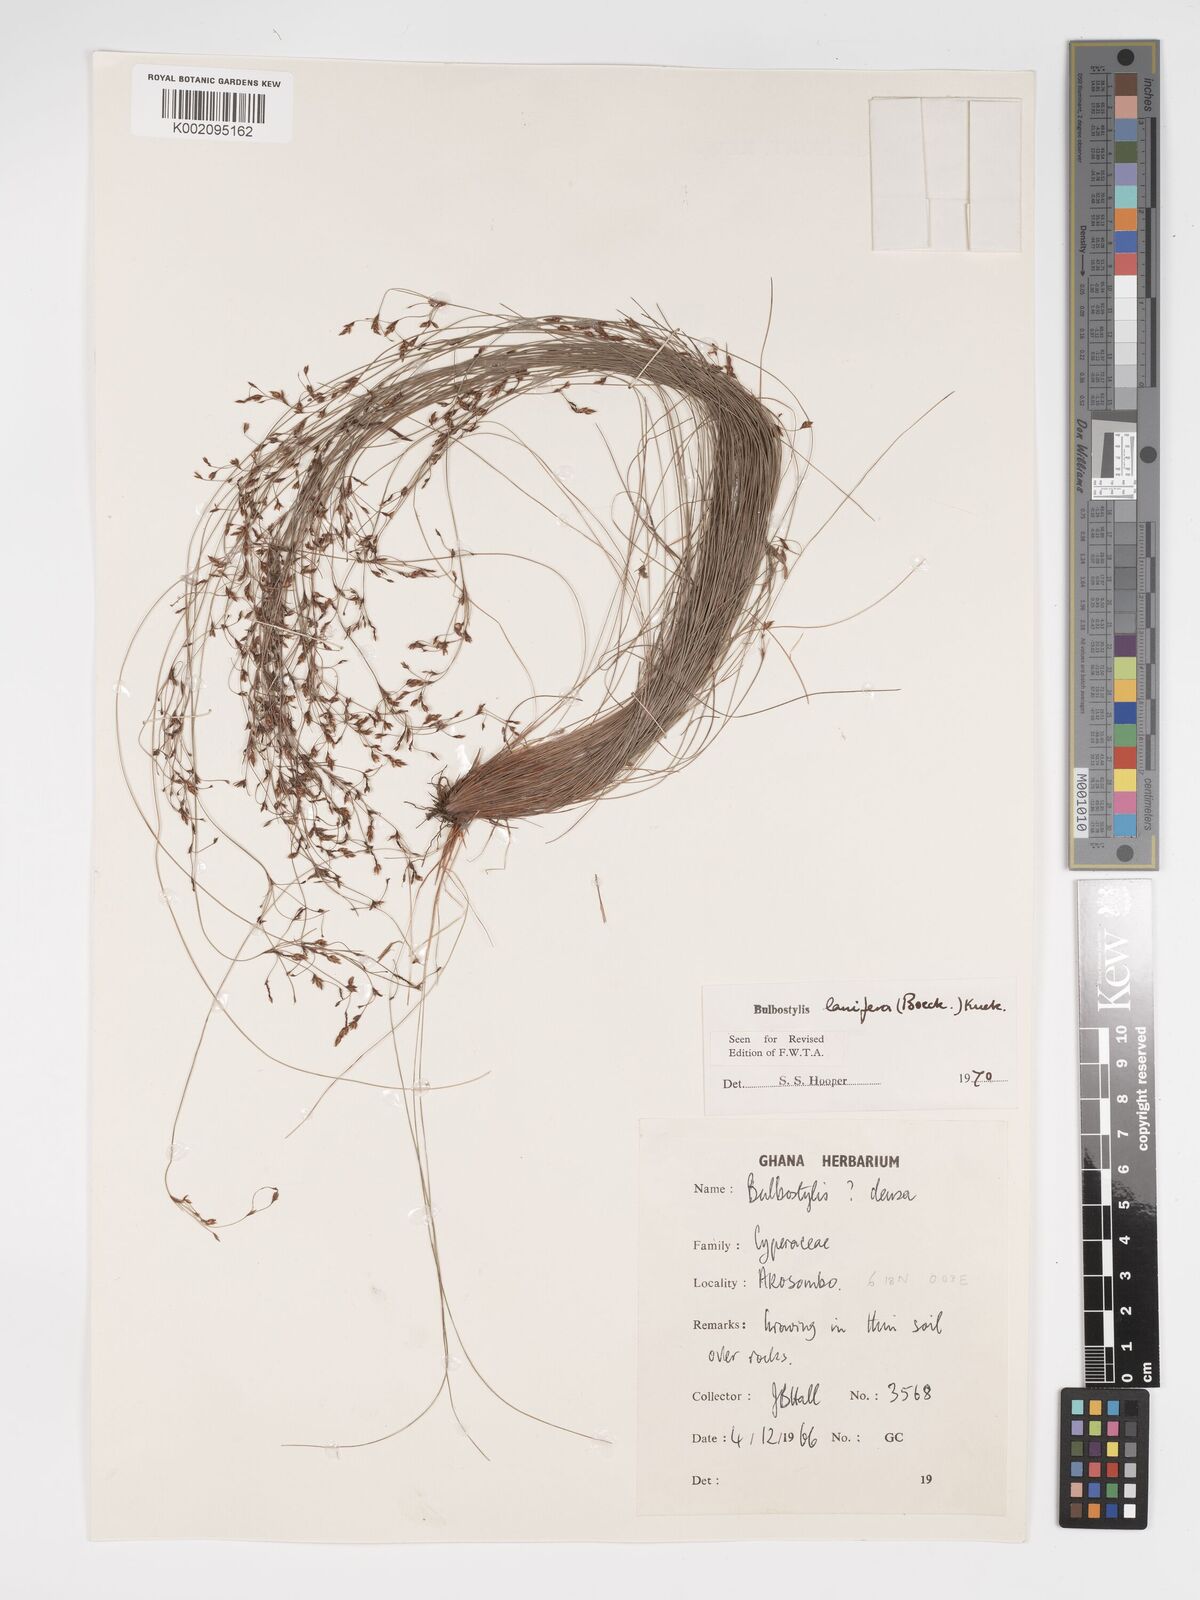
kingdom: Plantae
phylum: Tracheophyta
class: Liliopsida
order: Poales
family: Cyperaceae
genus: Bulbostylis
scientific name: Bulbostylis lanifera
